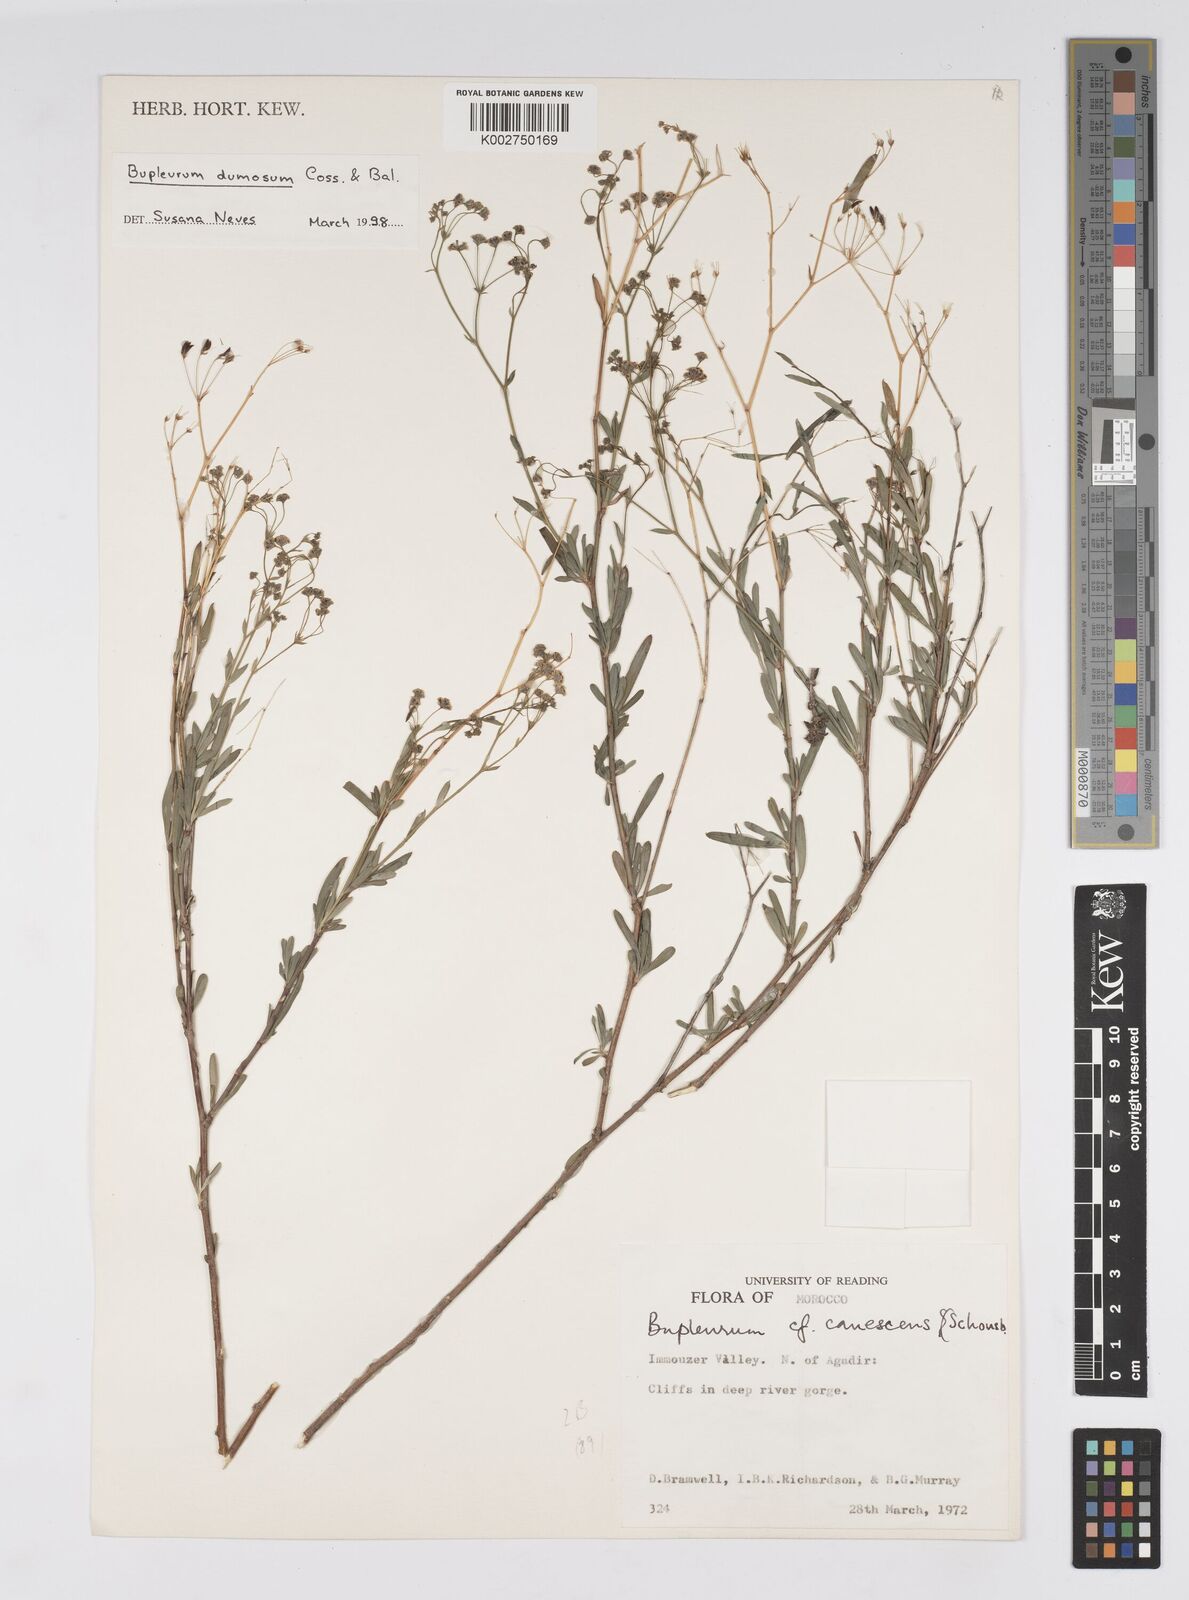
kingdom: Plantae
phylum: Tracheophyta
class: Magnoliopsida
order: Apiales
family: Apiaceae
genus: Bupleurum
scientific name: Bupleurum dumosum
